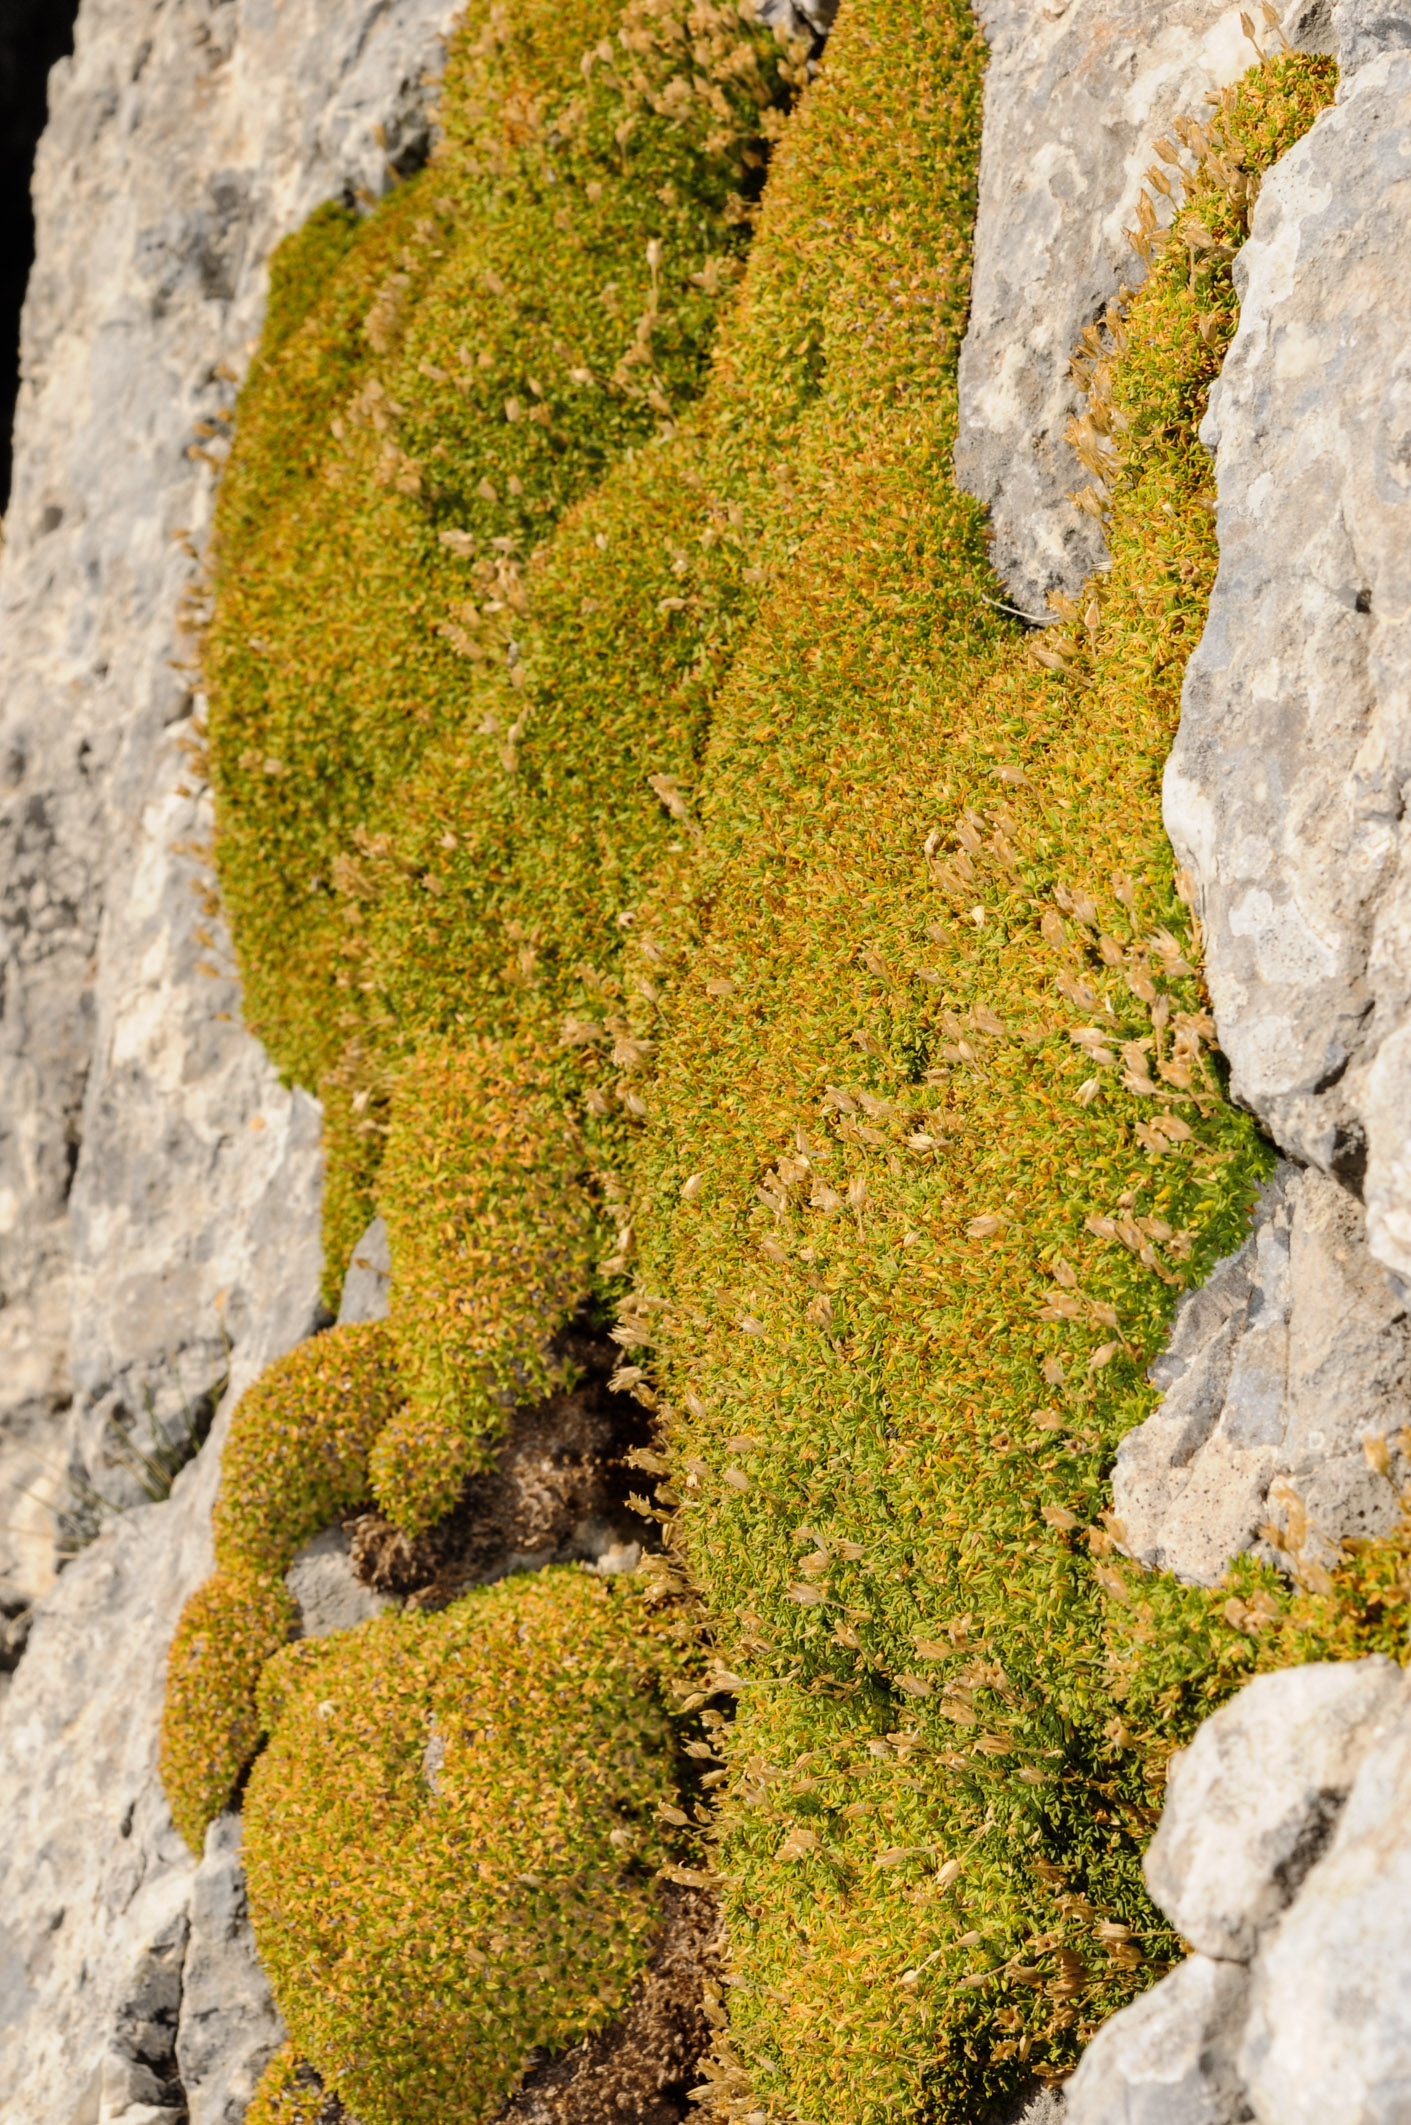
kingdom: Plantae
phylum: Tracheophyta
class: Magnoliopsida
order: Caryophyllales
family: Caryophyllaceae
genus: Mcneillia
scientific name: Mcneillia stellata
